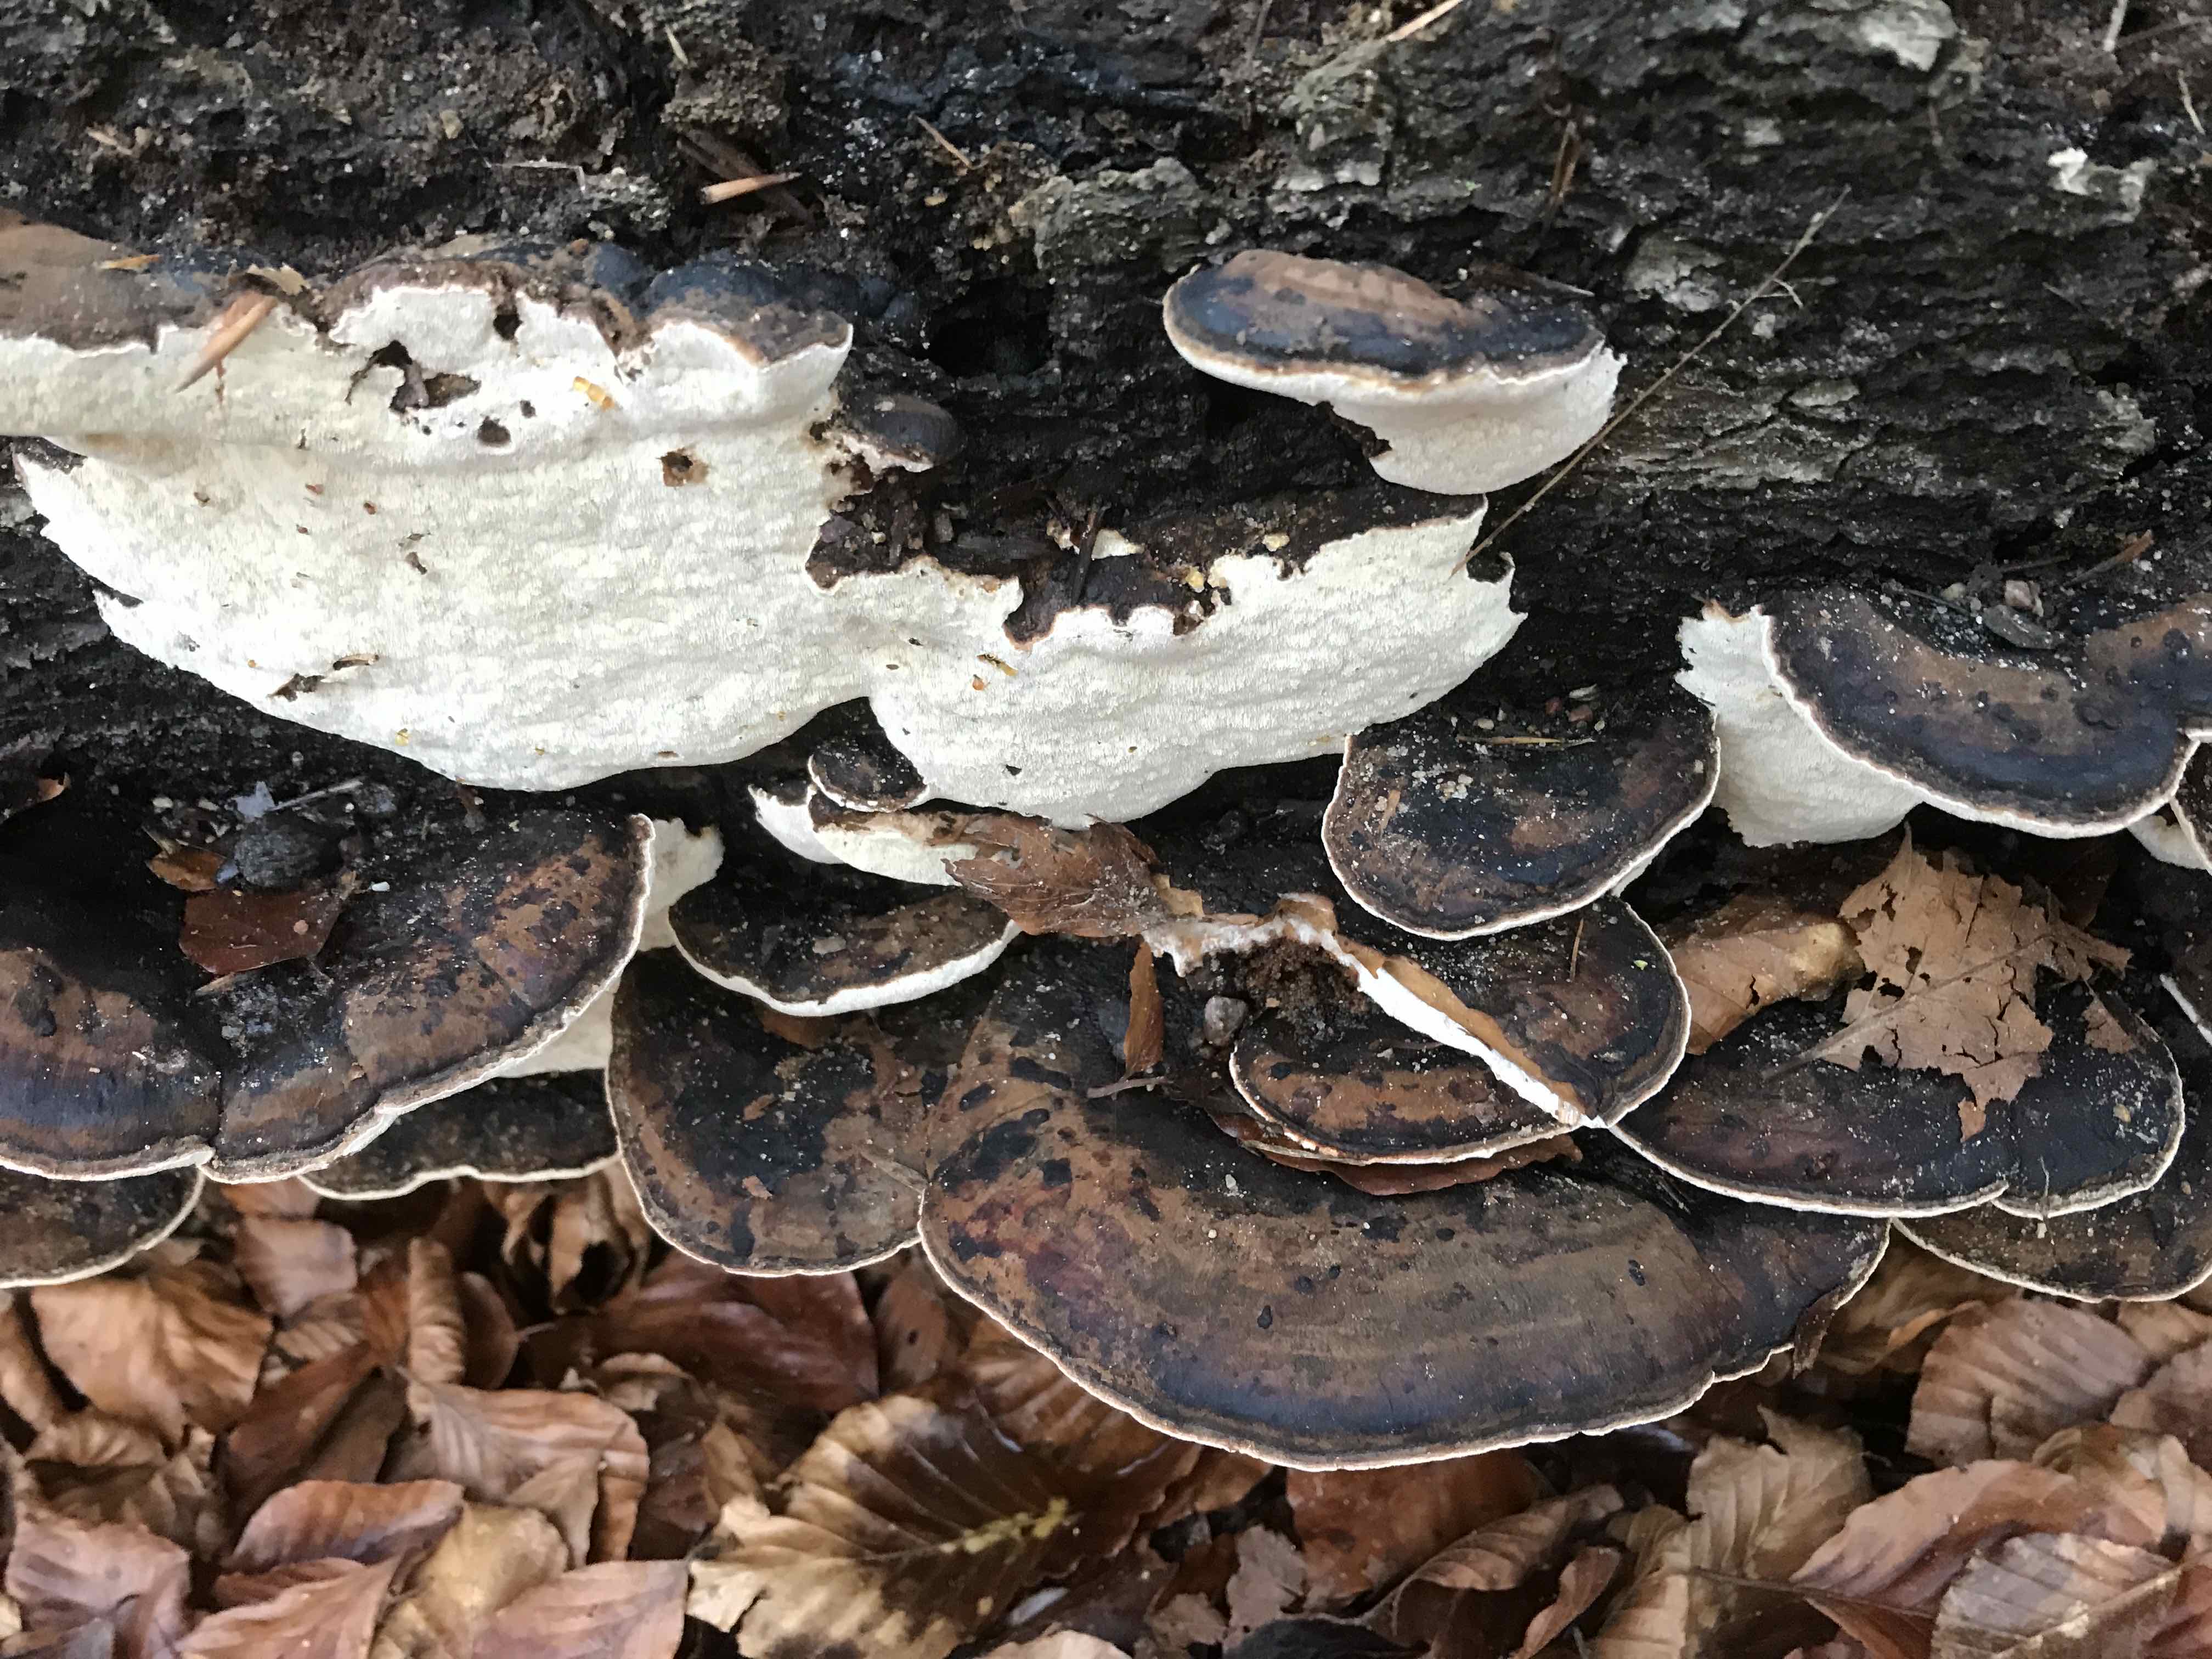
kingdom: Fungi
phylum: Basidiomycota
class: Agaricomycetes
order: Polyporales
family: Ischnodermataceae
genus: Ischnoderma
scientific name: Ischnoderma resinosum
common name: løv-tjæreporesvamp
